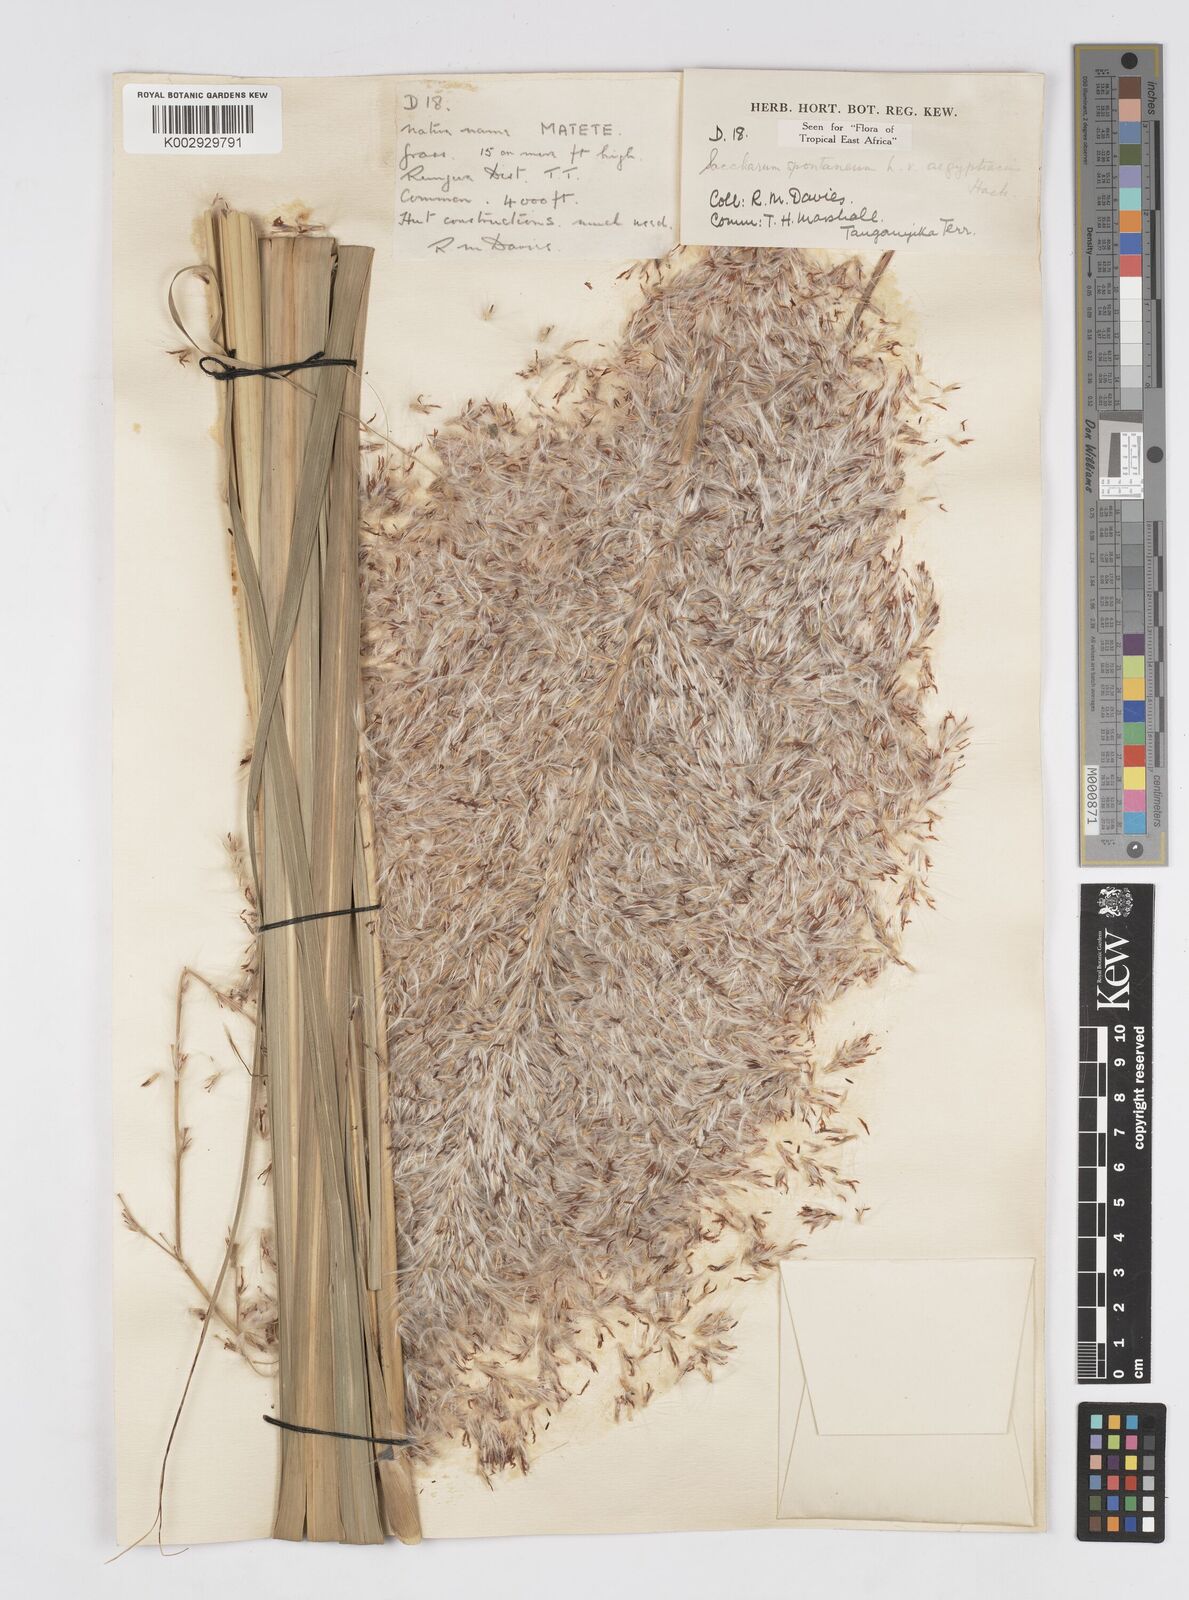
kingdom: Plantae
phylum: Tracheophyta
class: Liliopsida
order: Poales
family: Poaceae
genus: Saccharum
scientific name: Saccharum spontaneum
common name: Wild sugarcane
